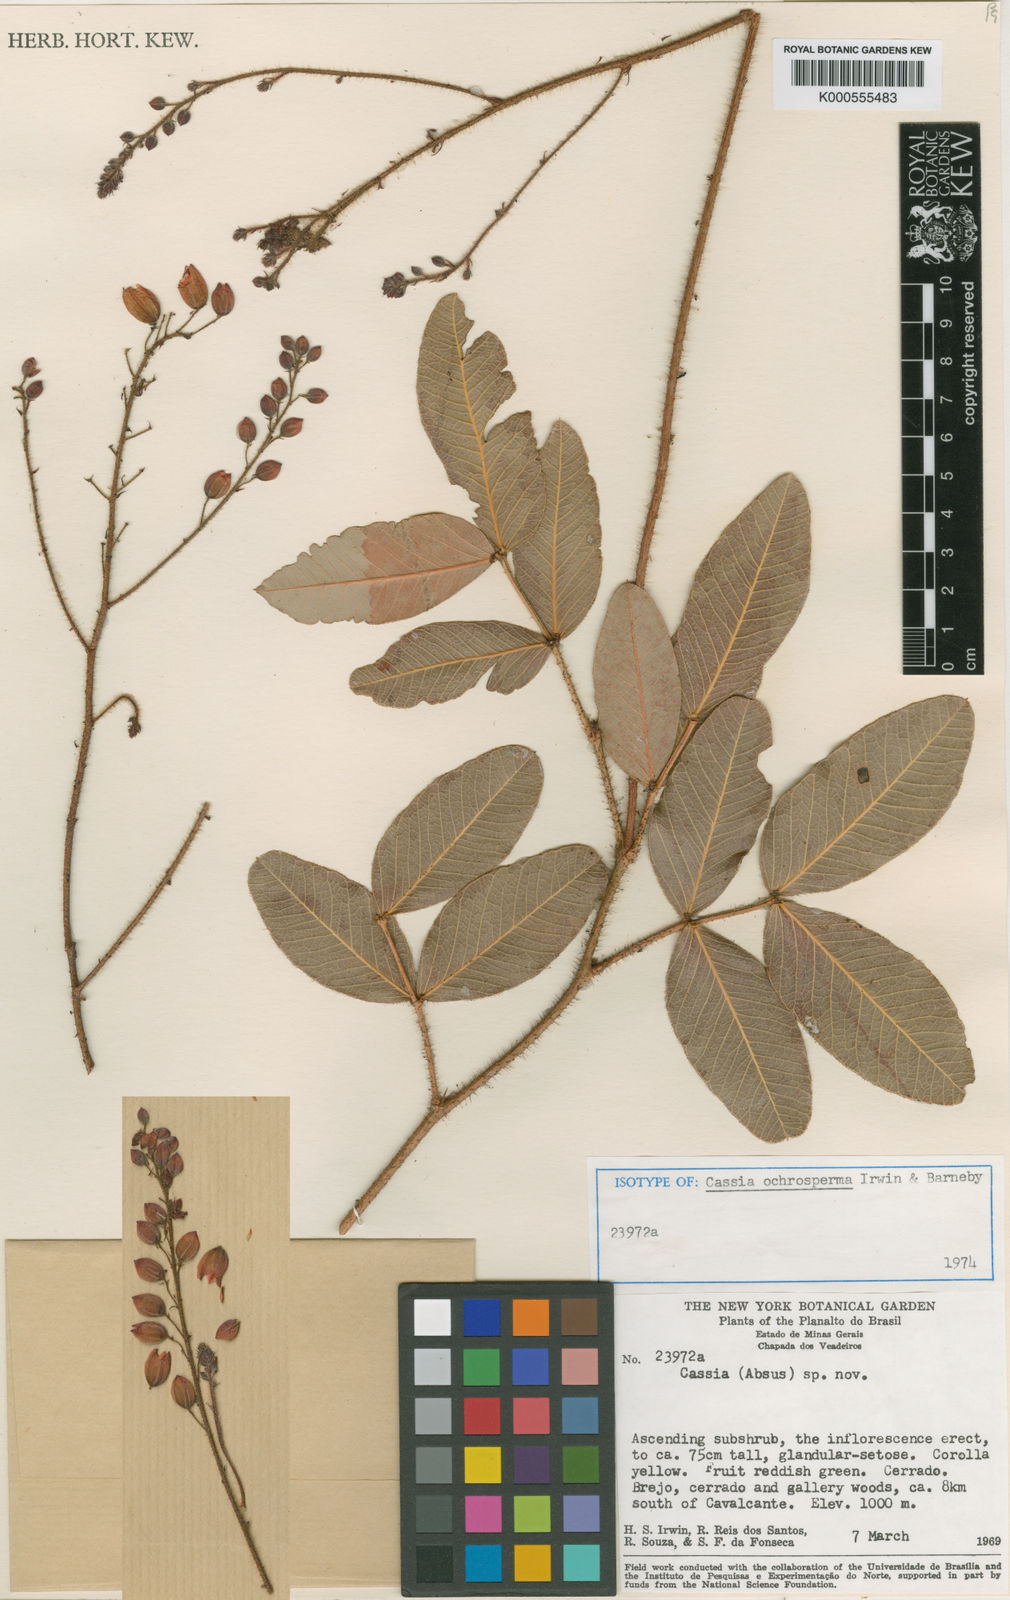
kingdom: Plantae
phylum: Tracheophyta
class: Magnoliopsida
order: Fabales
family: Fabaceae
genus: Chamaecrista
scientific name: Chamaecrista ochrosperma
